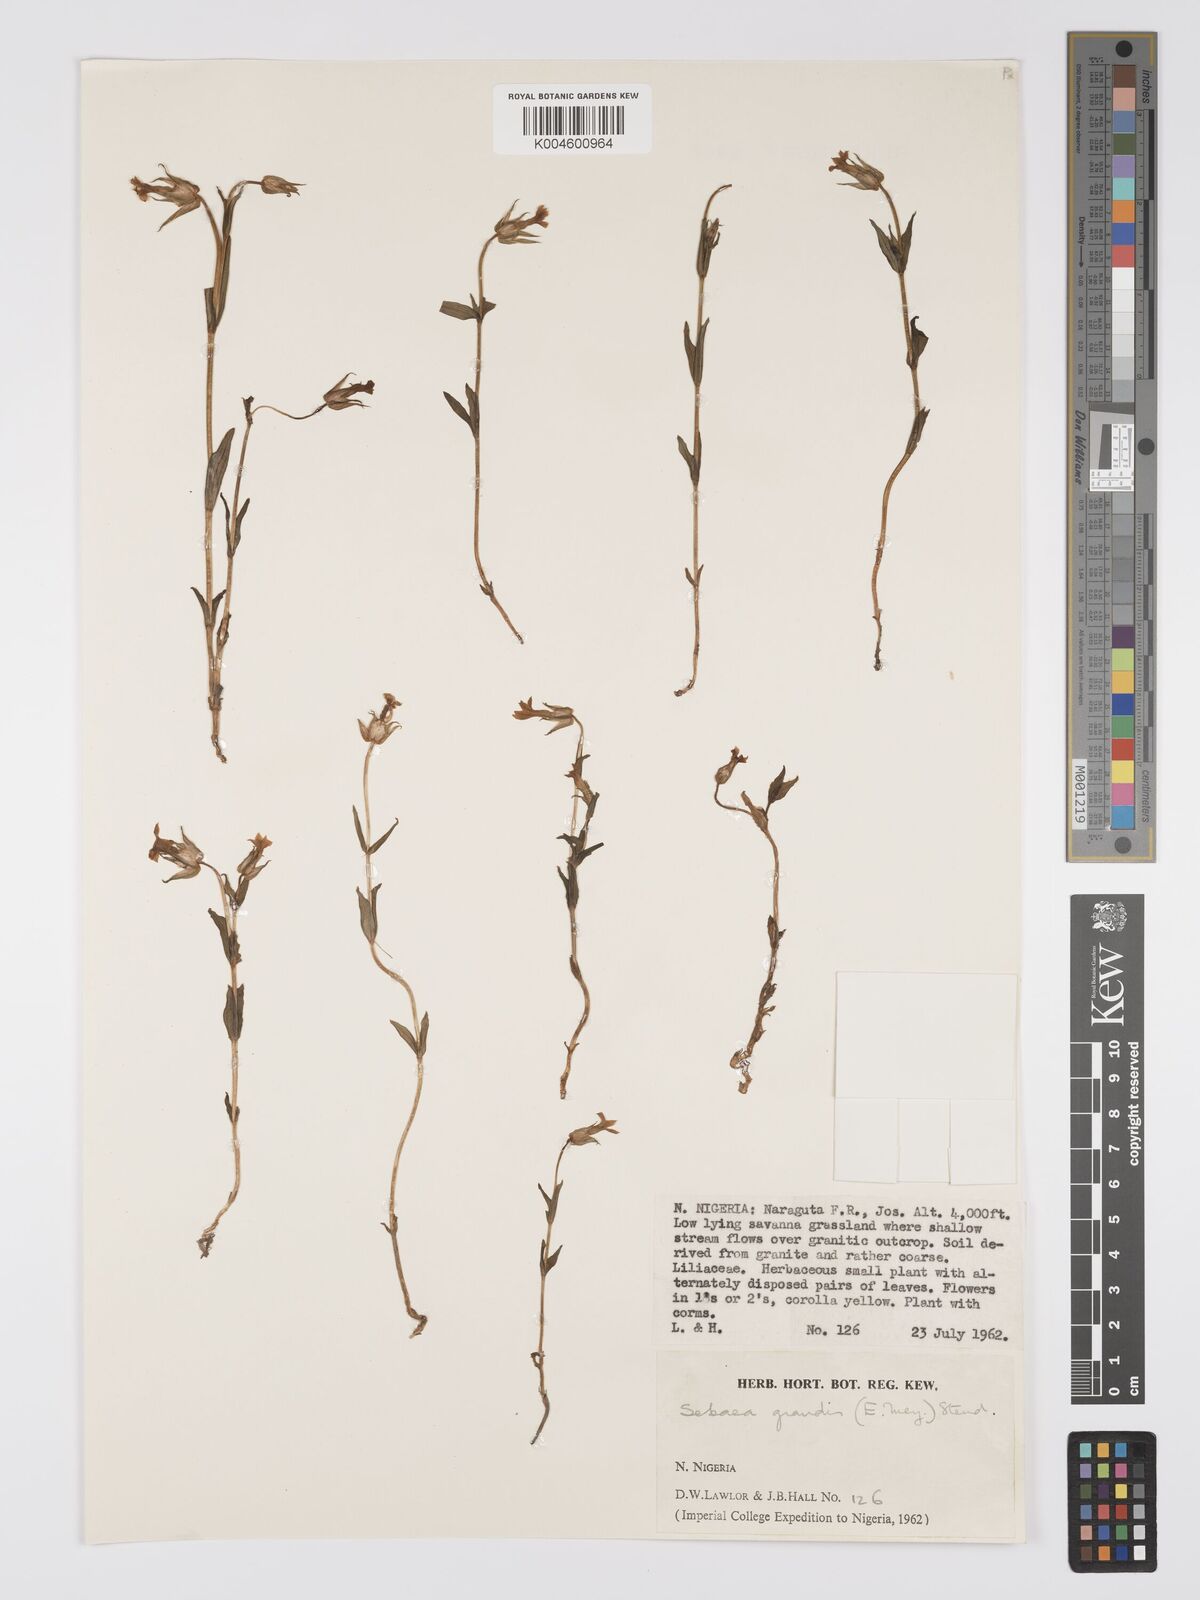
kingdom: Plantae
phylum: Tracheophyta
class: Magnoliopsida
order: Gentianales
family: Gentianaceae
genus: Exochaenium
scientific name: Exochaenium grande
